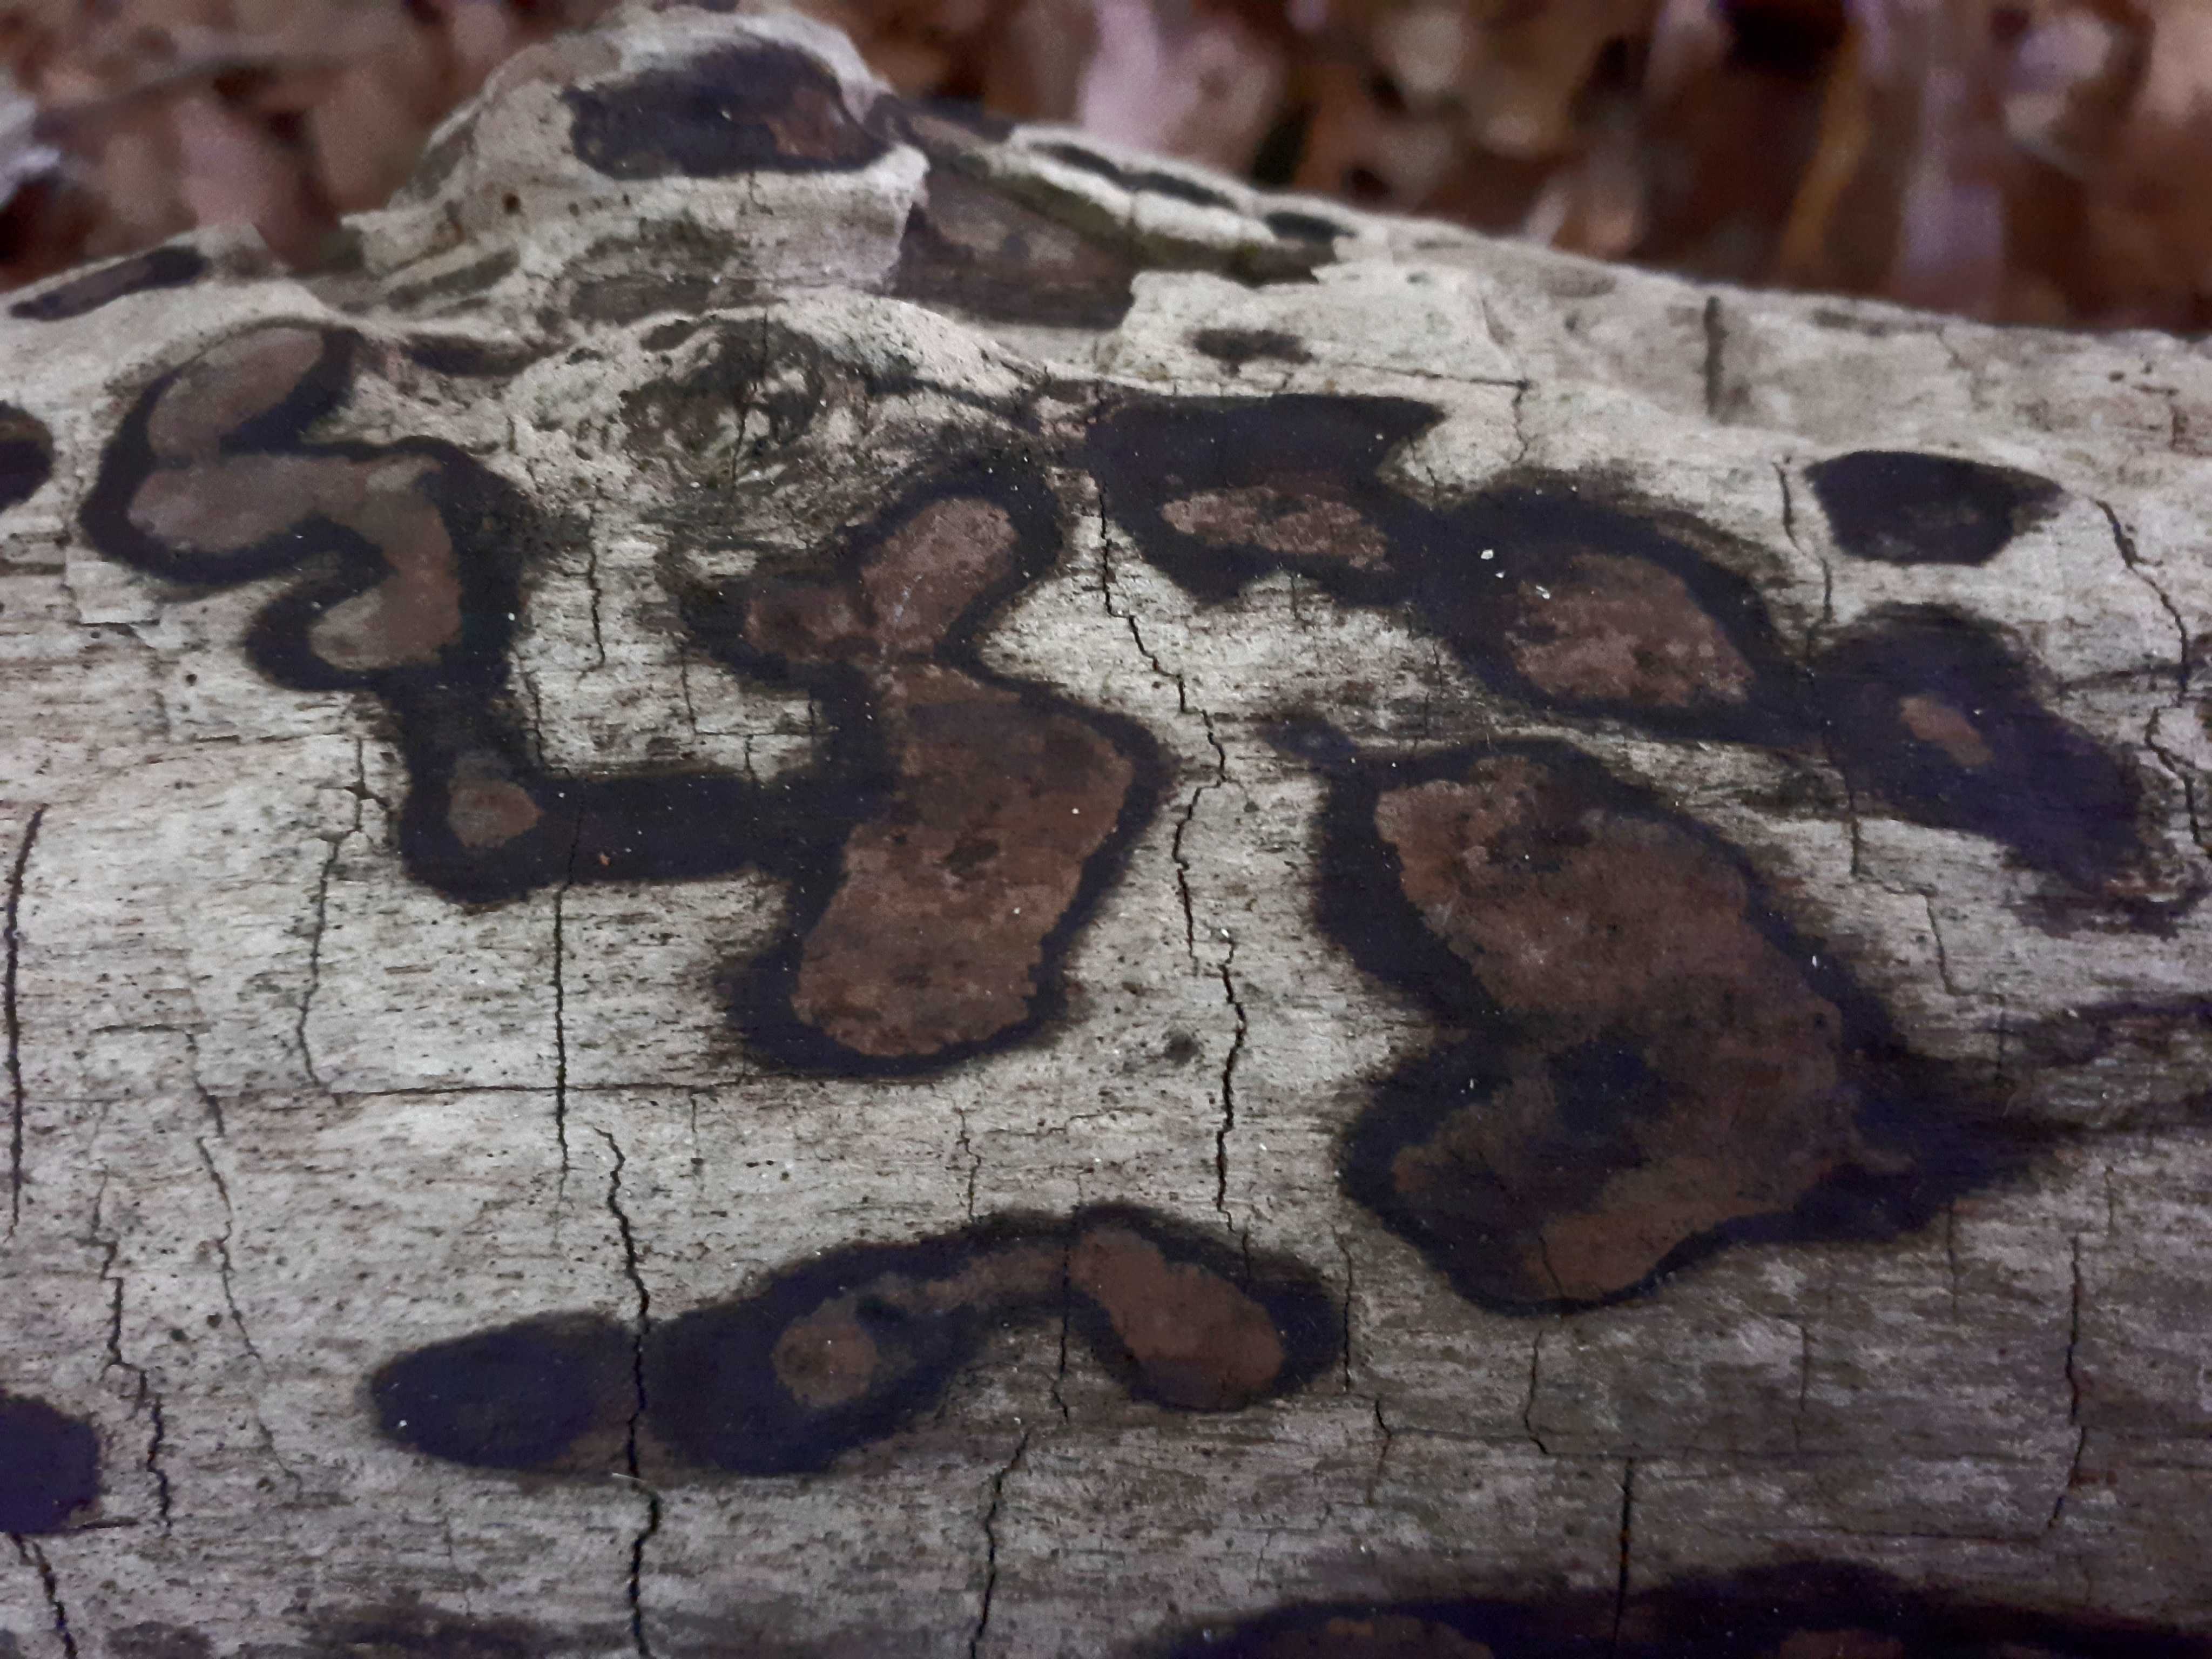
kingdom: Fungi
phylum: Ascomycota
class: Sordariomycetes
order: Xylariales
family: Hypoxylaceae
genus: Hypoxylon
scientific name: Hypoxylon petriniae
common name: nedsænket kulbær
